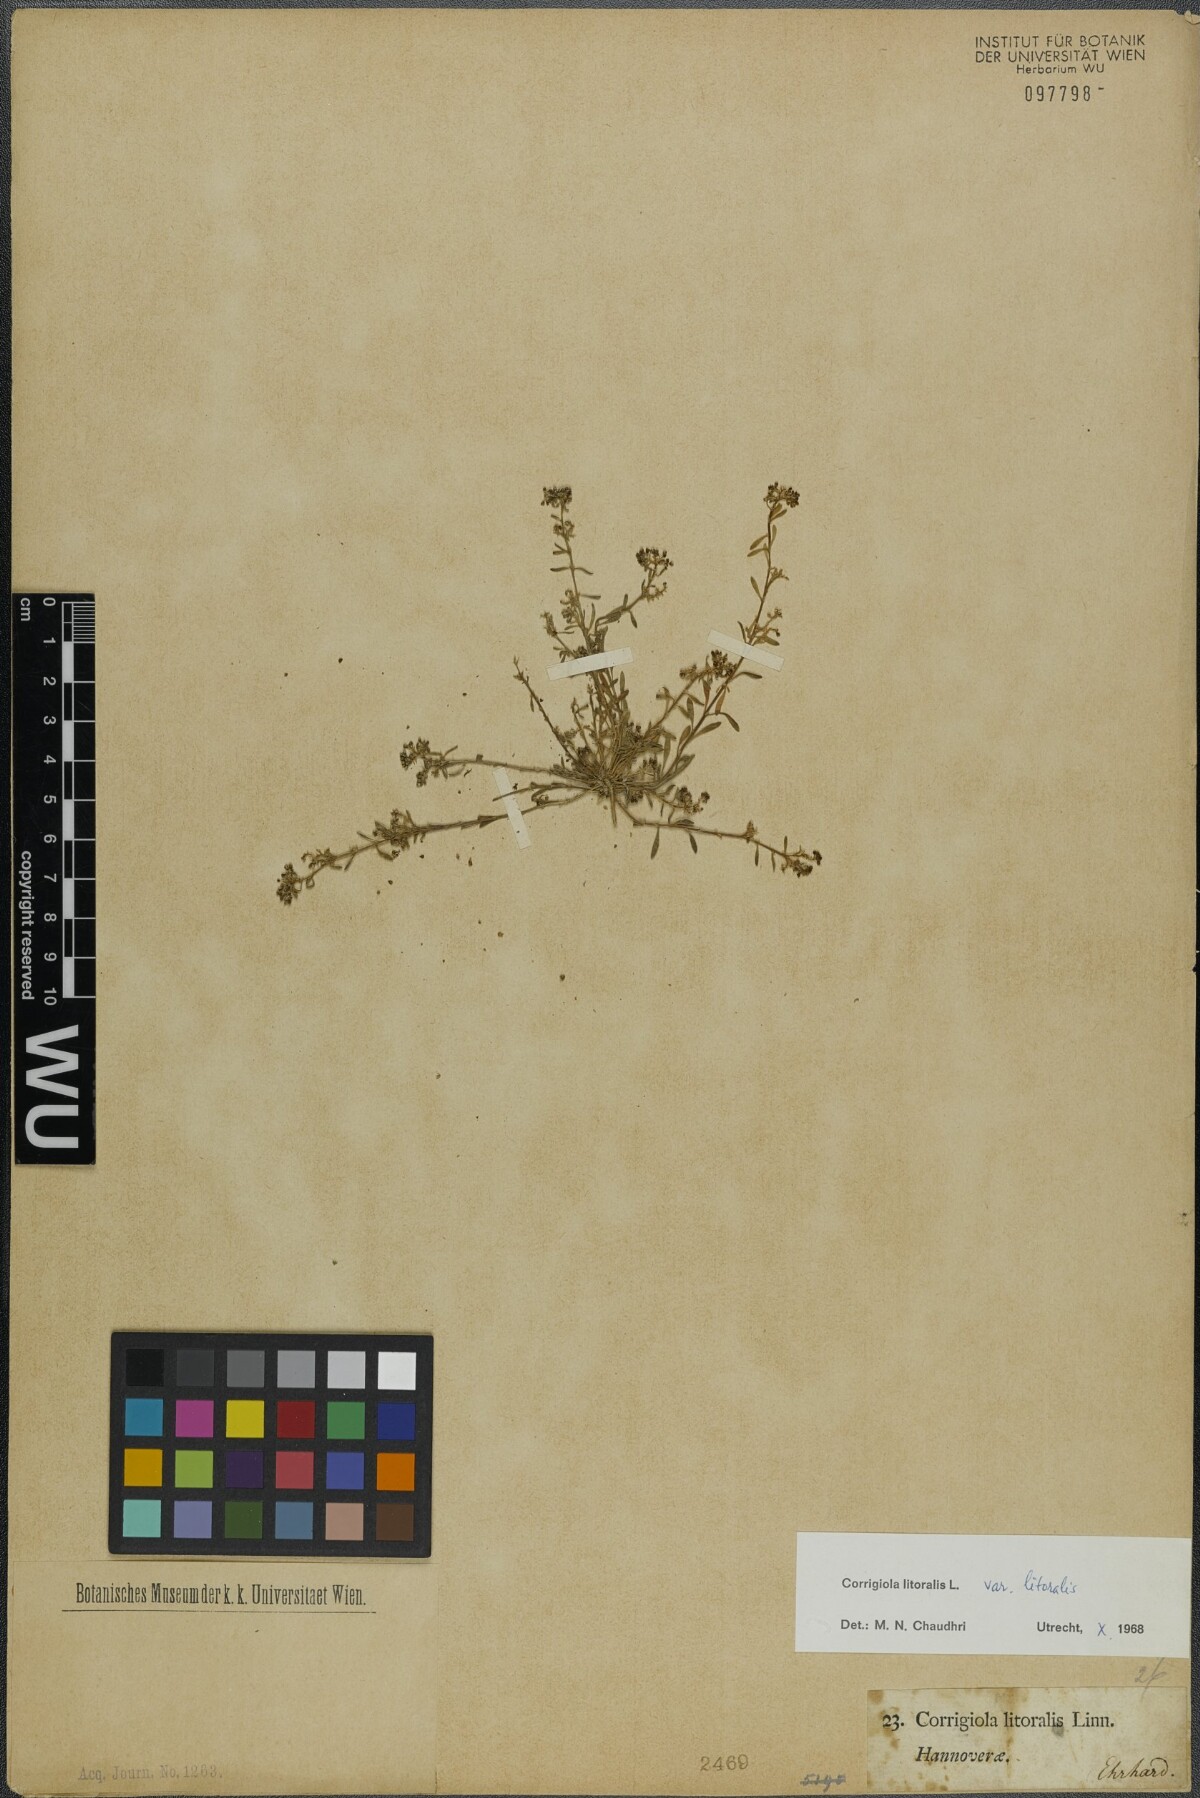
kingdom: Plantae
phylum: Tracheophyta
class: Magnoliopsida
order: Caryophyllales
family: Caryophyllaceae
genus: Corrigiola
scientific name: Corrigiola litoralis
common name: Strapwort
